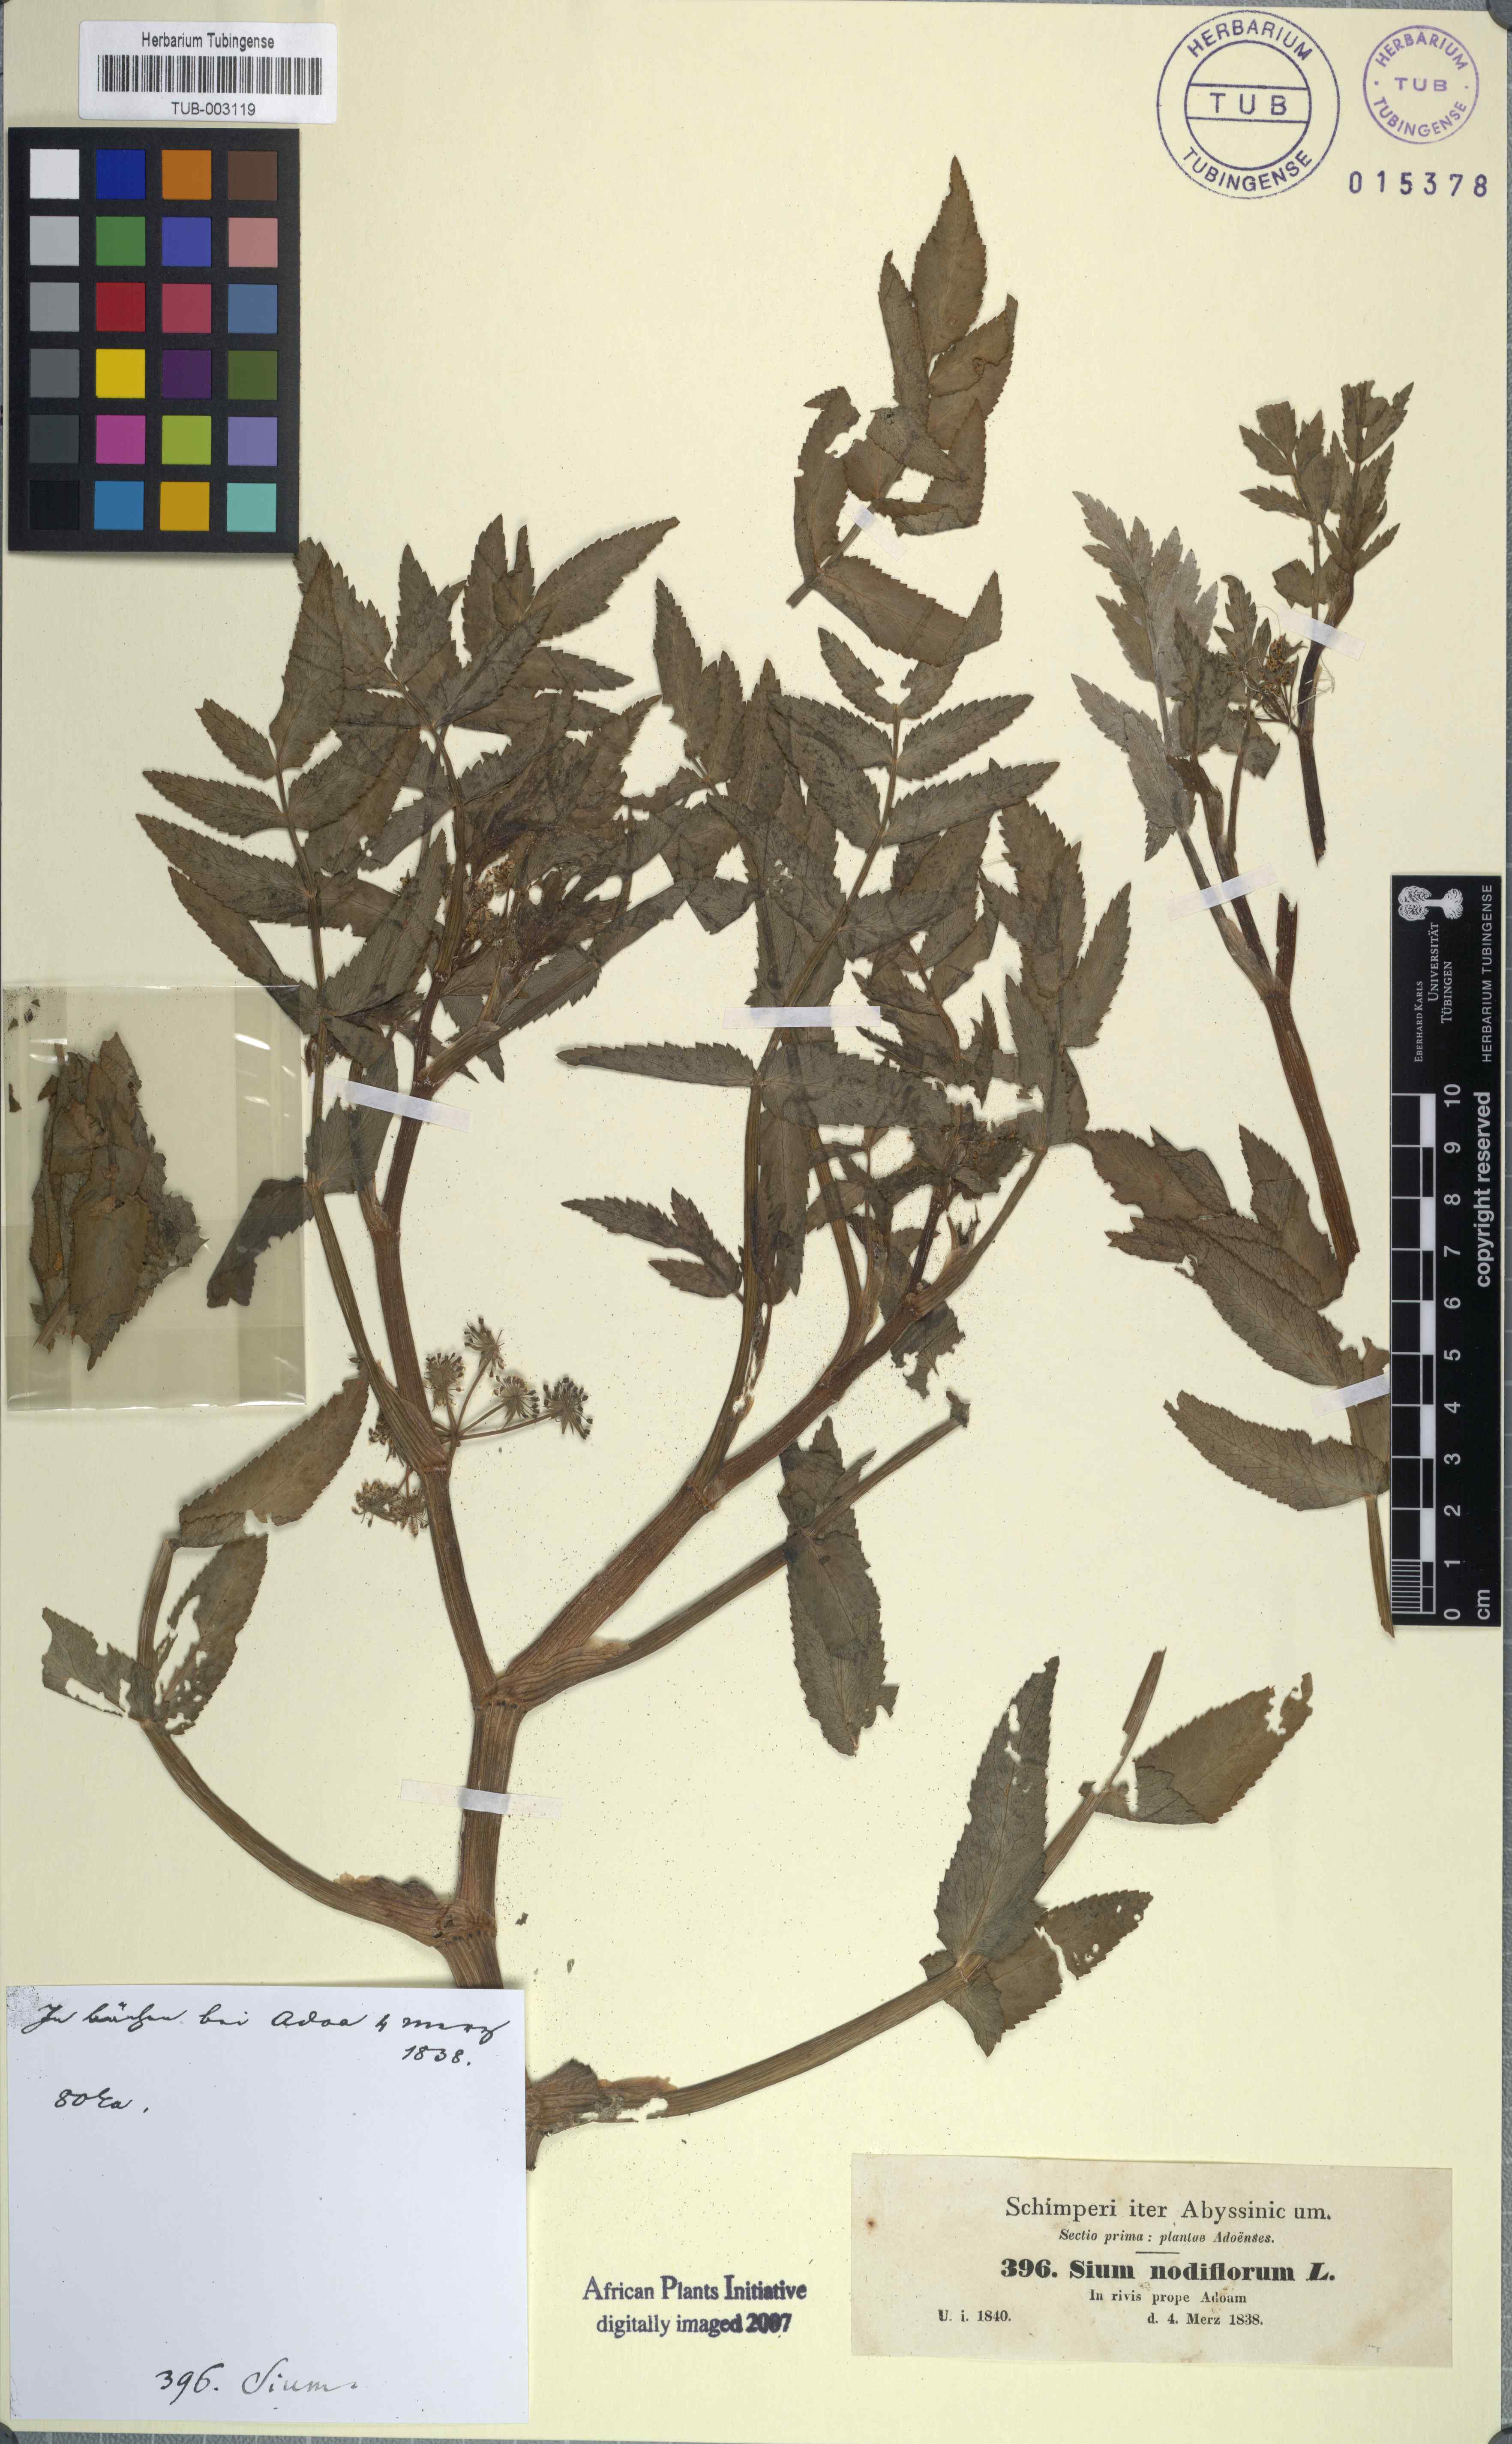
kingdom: Plantae
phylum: Tracheophyta
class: Magnoliopsida
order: Apiales
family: Apiaceae
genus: Helosciadium
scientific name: Helosciadium nodiflorum
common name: Fool's-watercress
